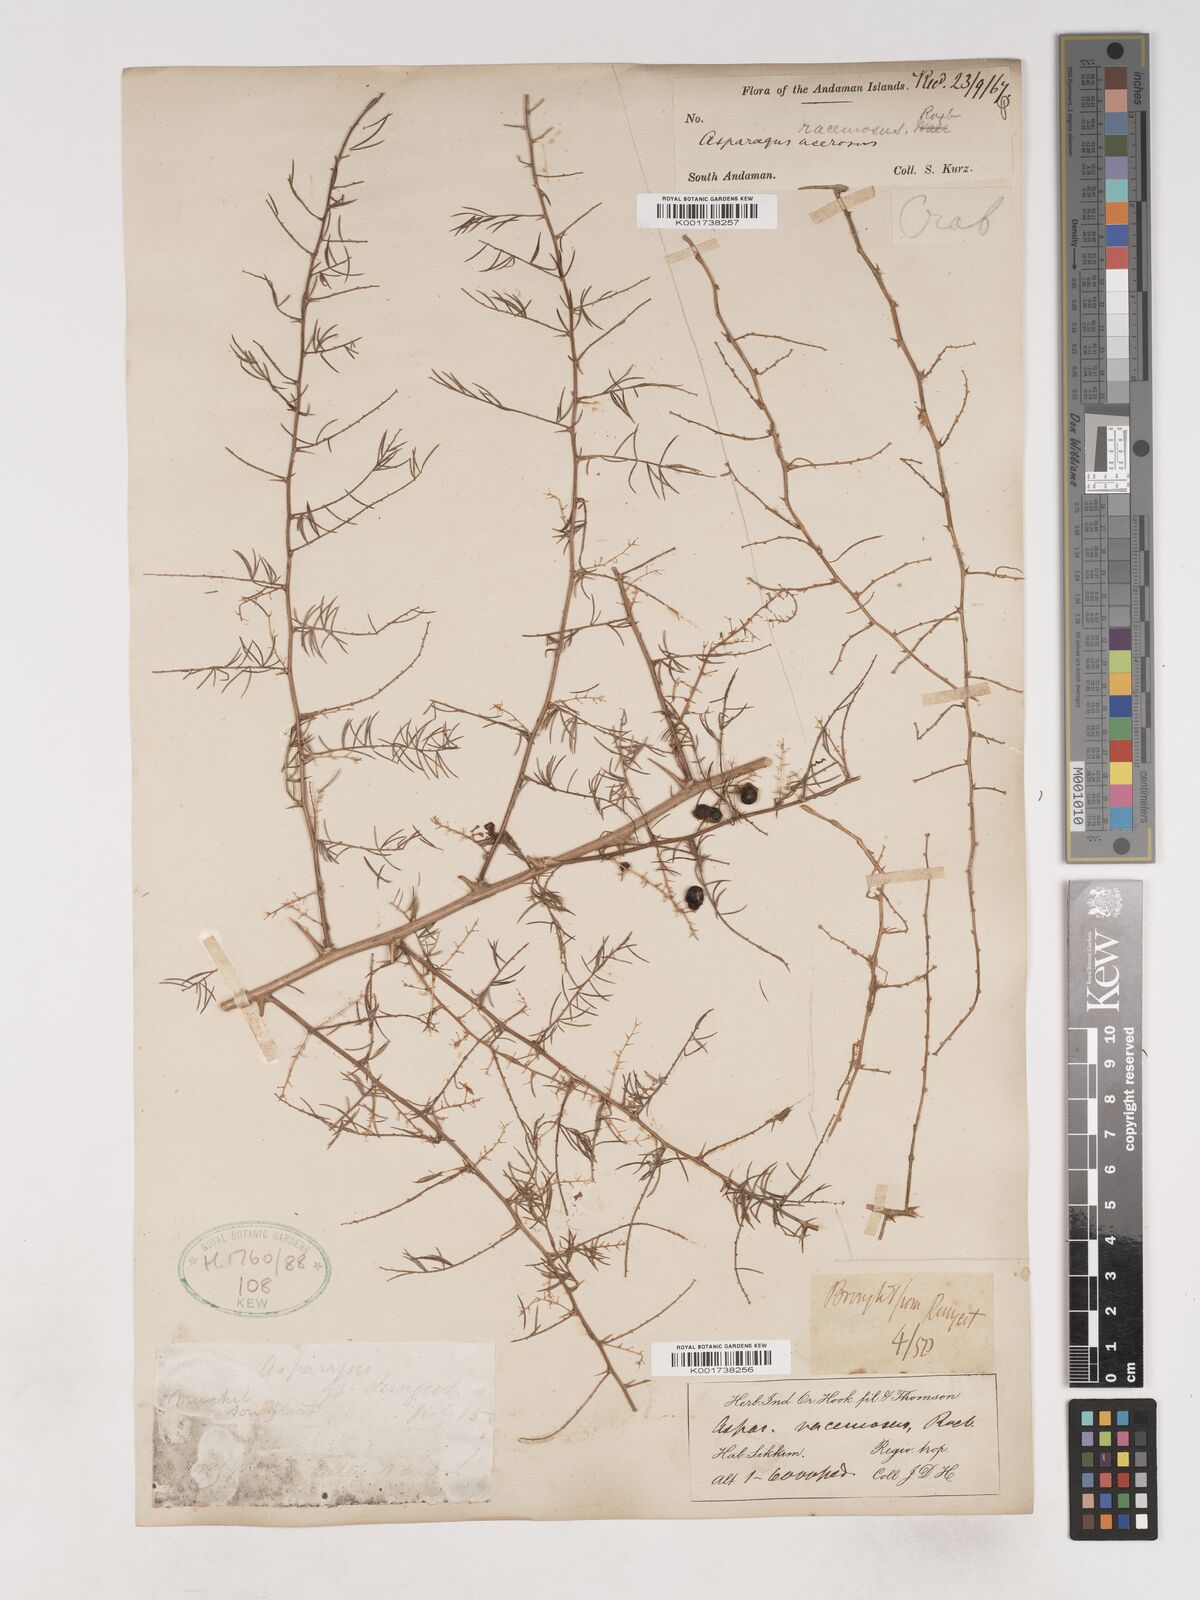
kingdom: Plantae
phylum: Tracheophyta
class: Liliopsida
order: Asparagales
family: Asparagaceae
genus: Asparagus
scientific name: Asparagus racemosus
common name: Asparagus-fern
